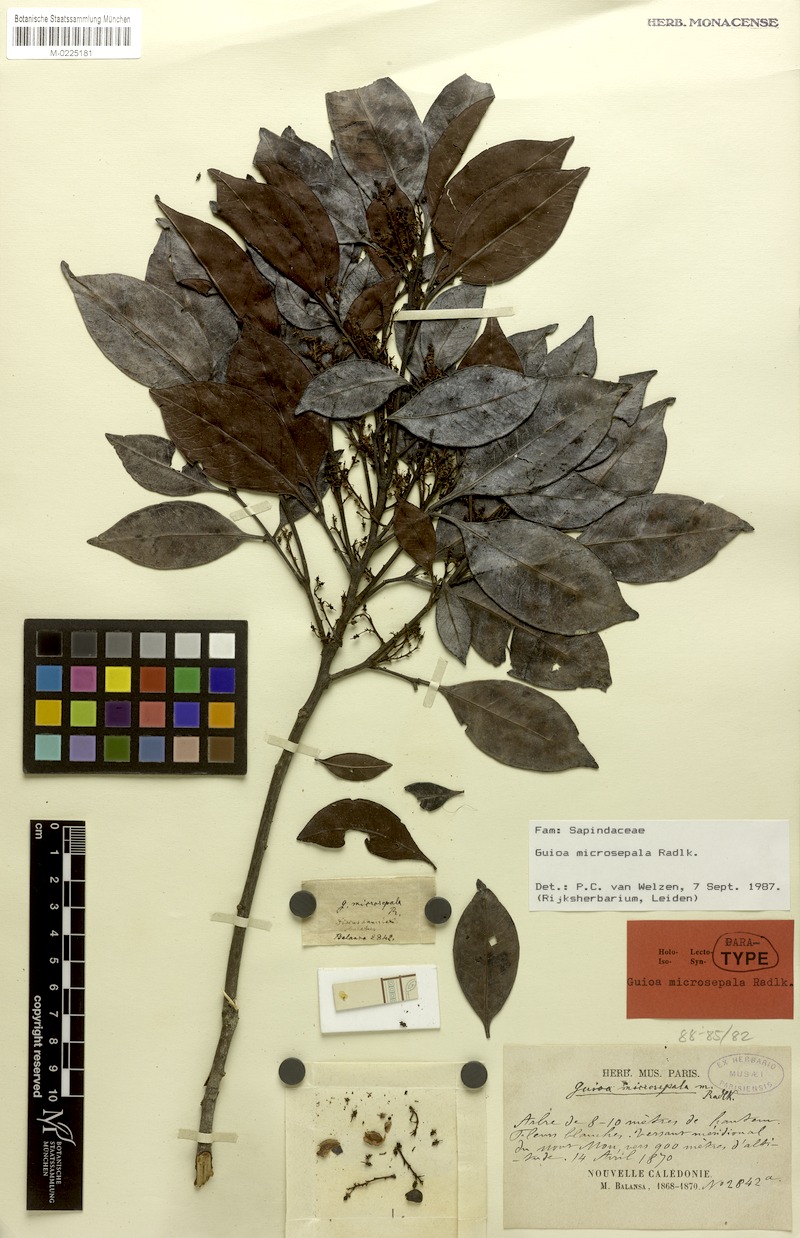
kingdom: Plantae
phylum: Tracheophyta
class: Magnoliopsida
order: Sapindales
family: Sapindaceae
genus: Guioa
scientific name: Guioa microsepala
